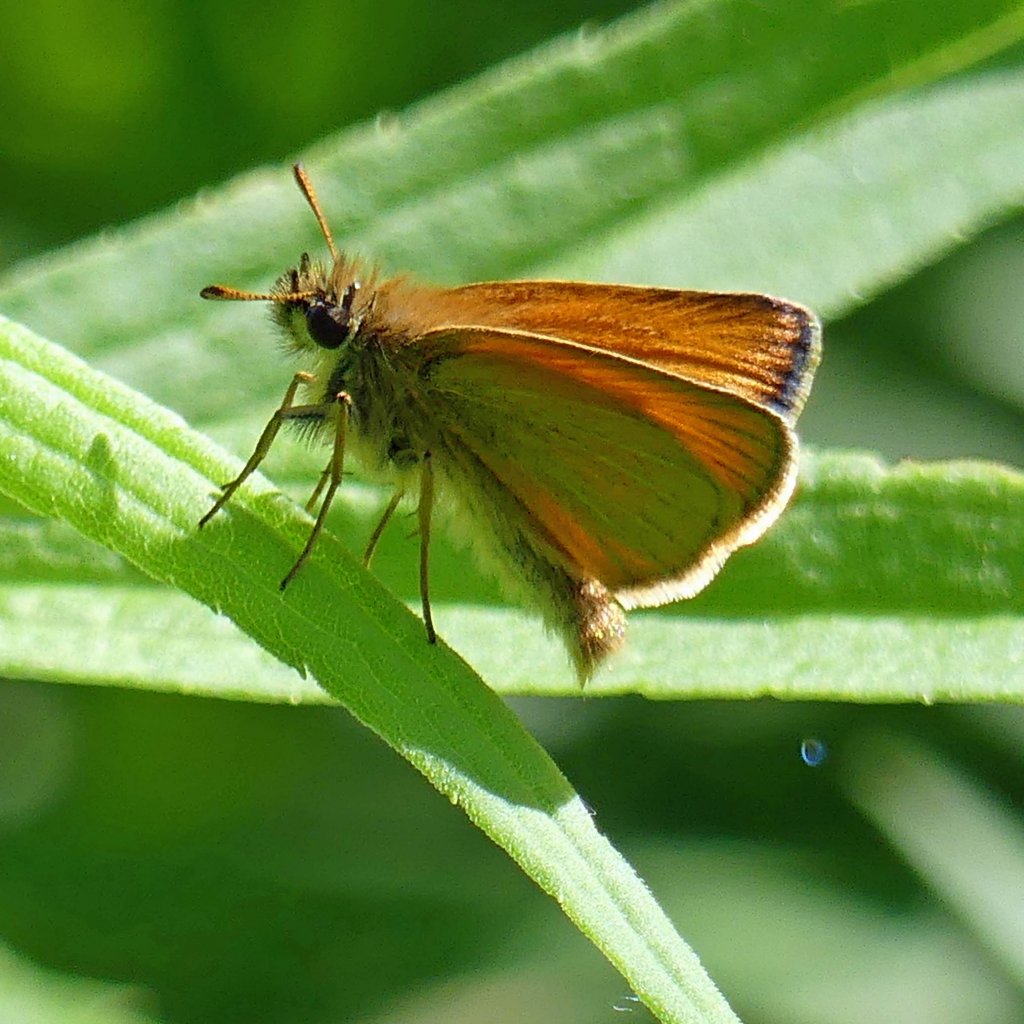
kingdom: Animalia
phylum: Arthropoda
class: Insecta
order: Lepidoptera
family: Hesperiidae
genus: Thymelicus
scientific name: Thymelicus lineola
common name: European Skipper
